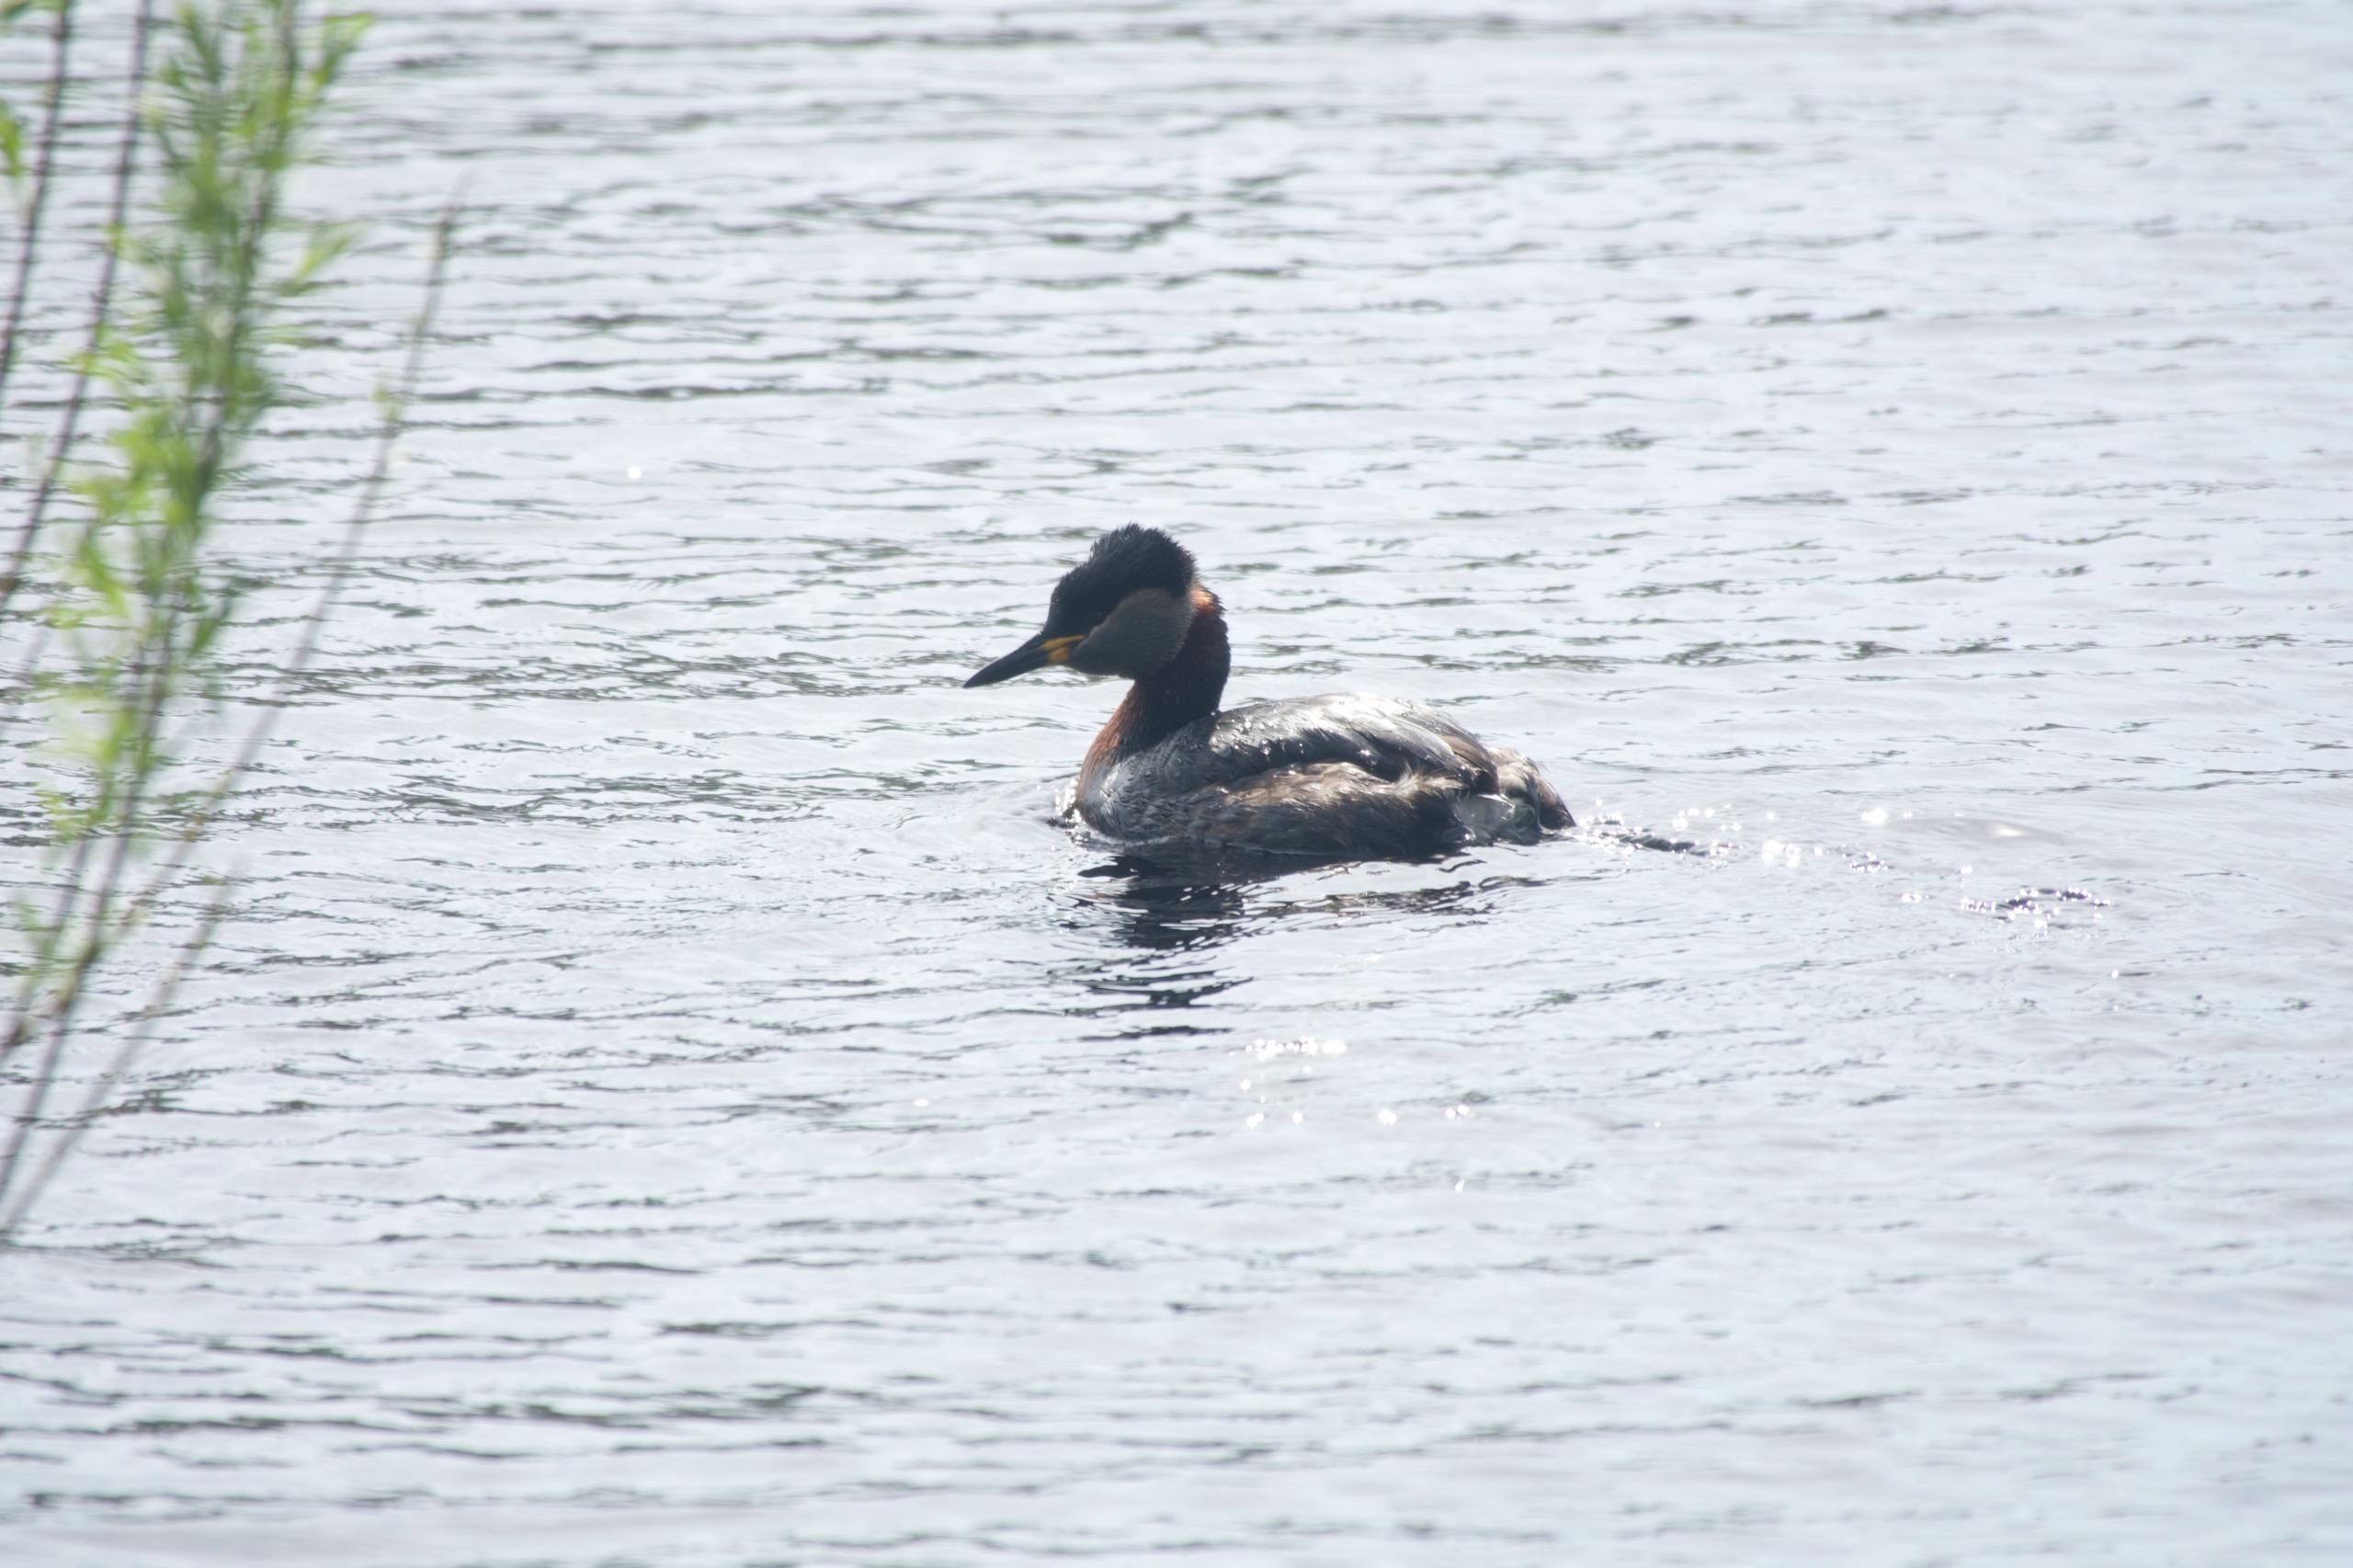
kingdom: Animalia
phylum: Chordata
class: Aves
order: Podicipediformes
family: Podicipedidae
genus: Podiceps
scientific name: Podiceps grisegena
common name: Gråstrubet lappedykker
